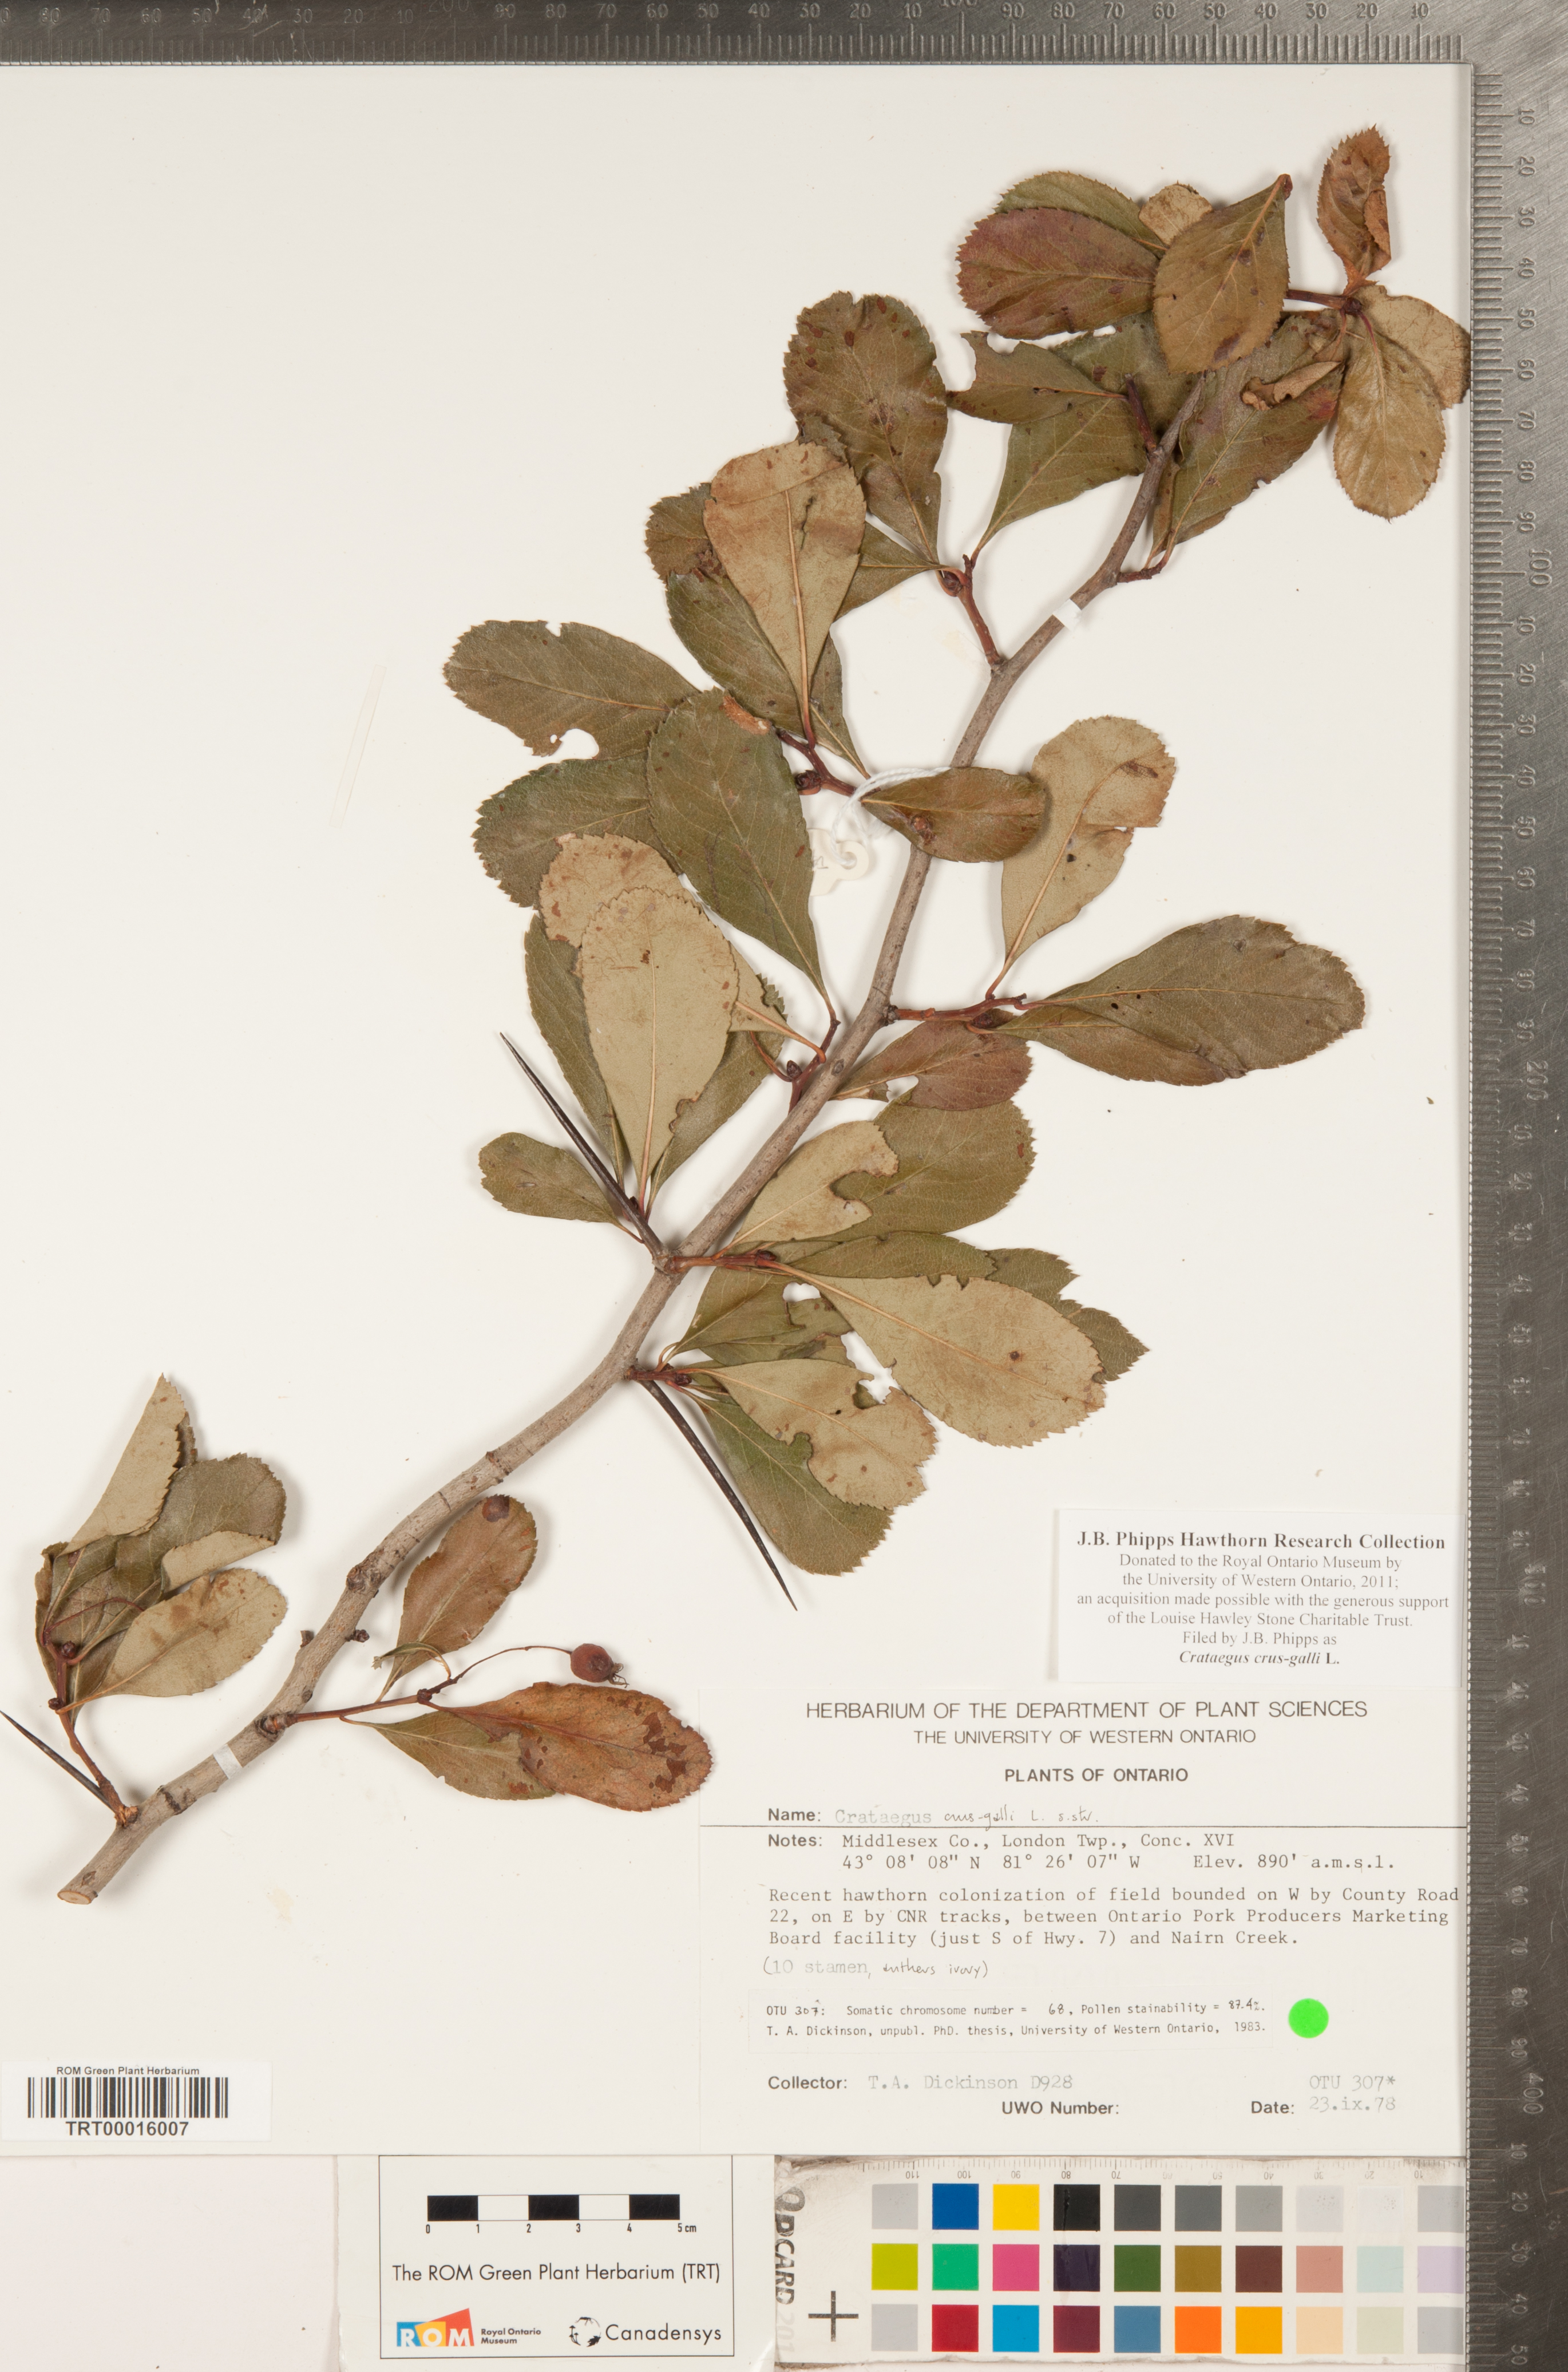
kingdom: Plantae
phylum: Tracheophyta
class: Magnoliopsida
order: Rosales
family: Rosaceae
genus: Crataegus
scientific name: Crataegus crus-galli
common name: Cockspurthorn
